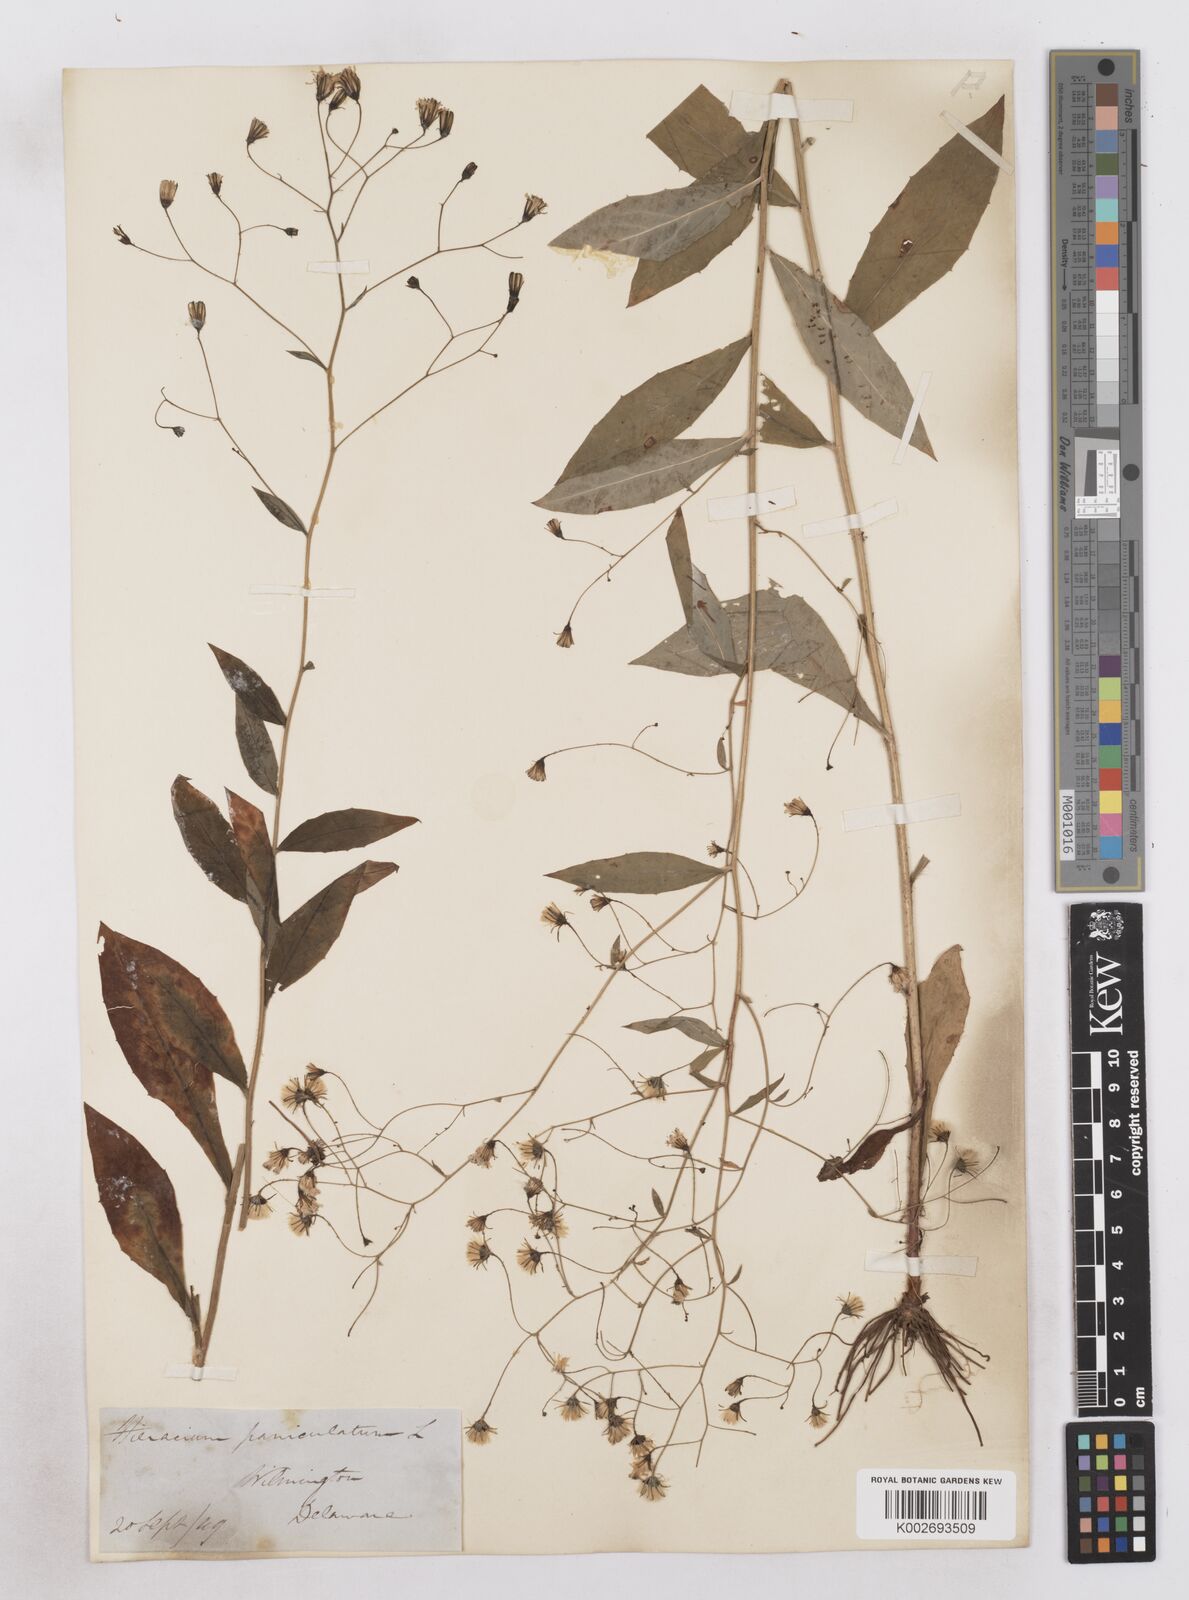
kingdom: Plantae
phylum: Tracheophyta
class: Magnoliopsida
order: Asterales
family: Asteraceae
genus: Hieracium
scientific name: Hieracium paniculatum
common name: Allegheny hawkweed
